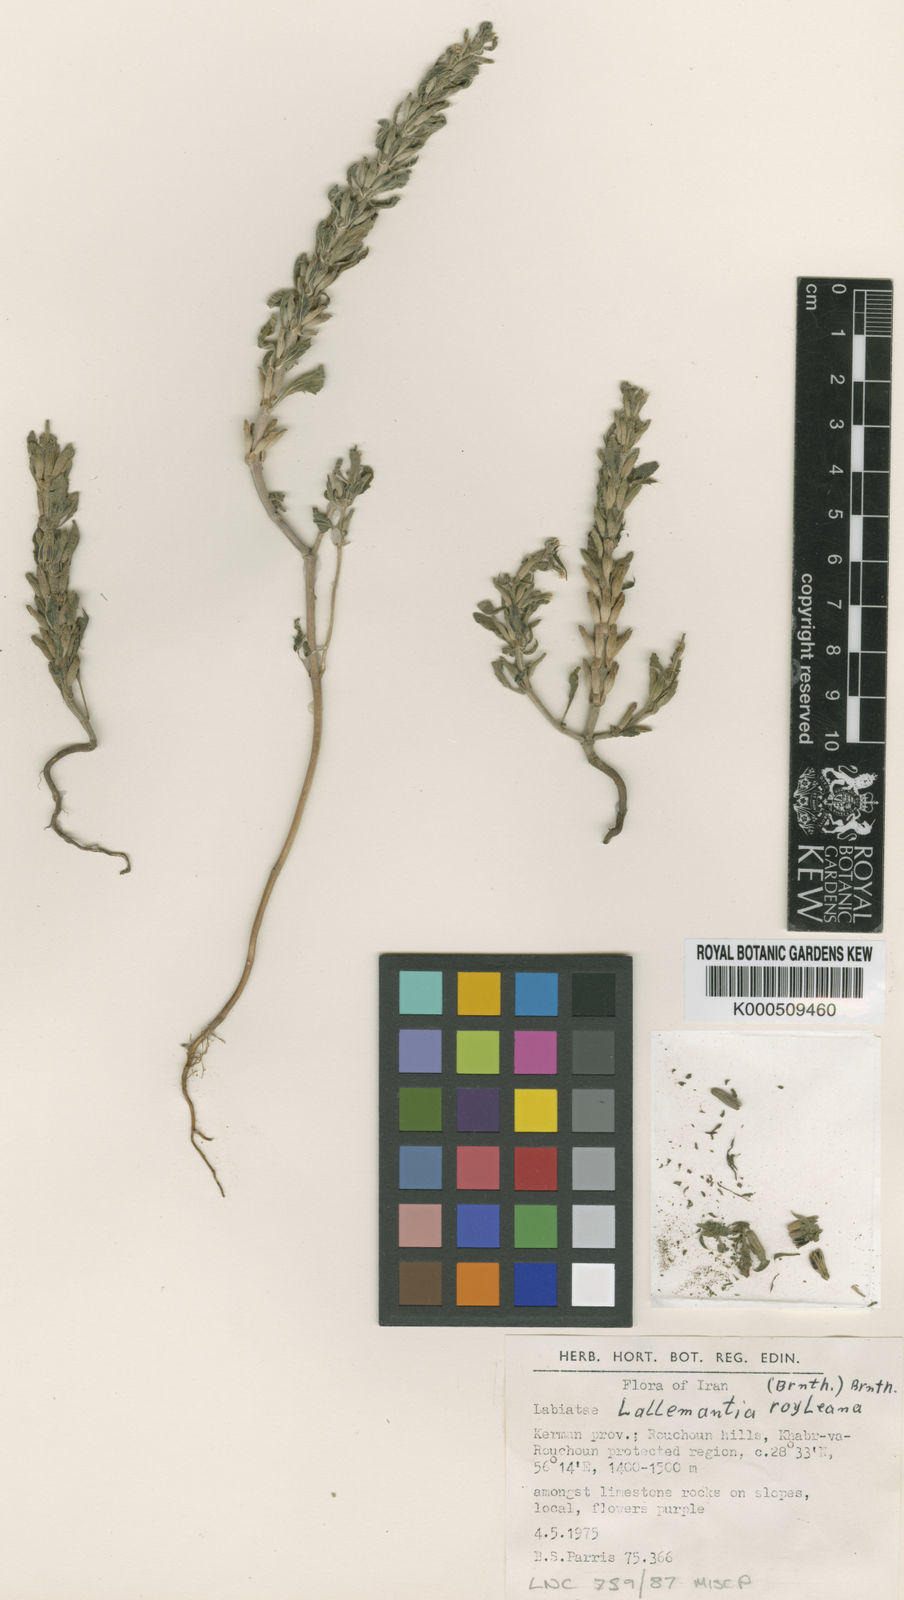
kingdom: Plantae
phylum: Tracheophyta
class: Magnoliopsida
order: Lamiales
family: Lamiaceae
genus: Lallemantia
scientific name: Lallemantia royleana
